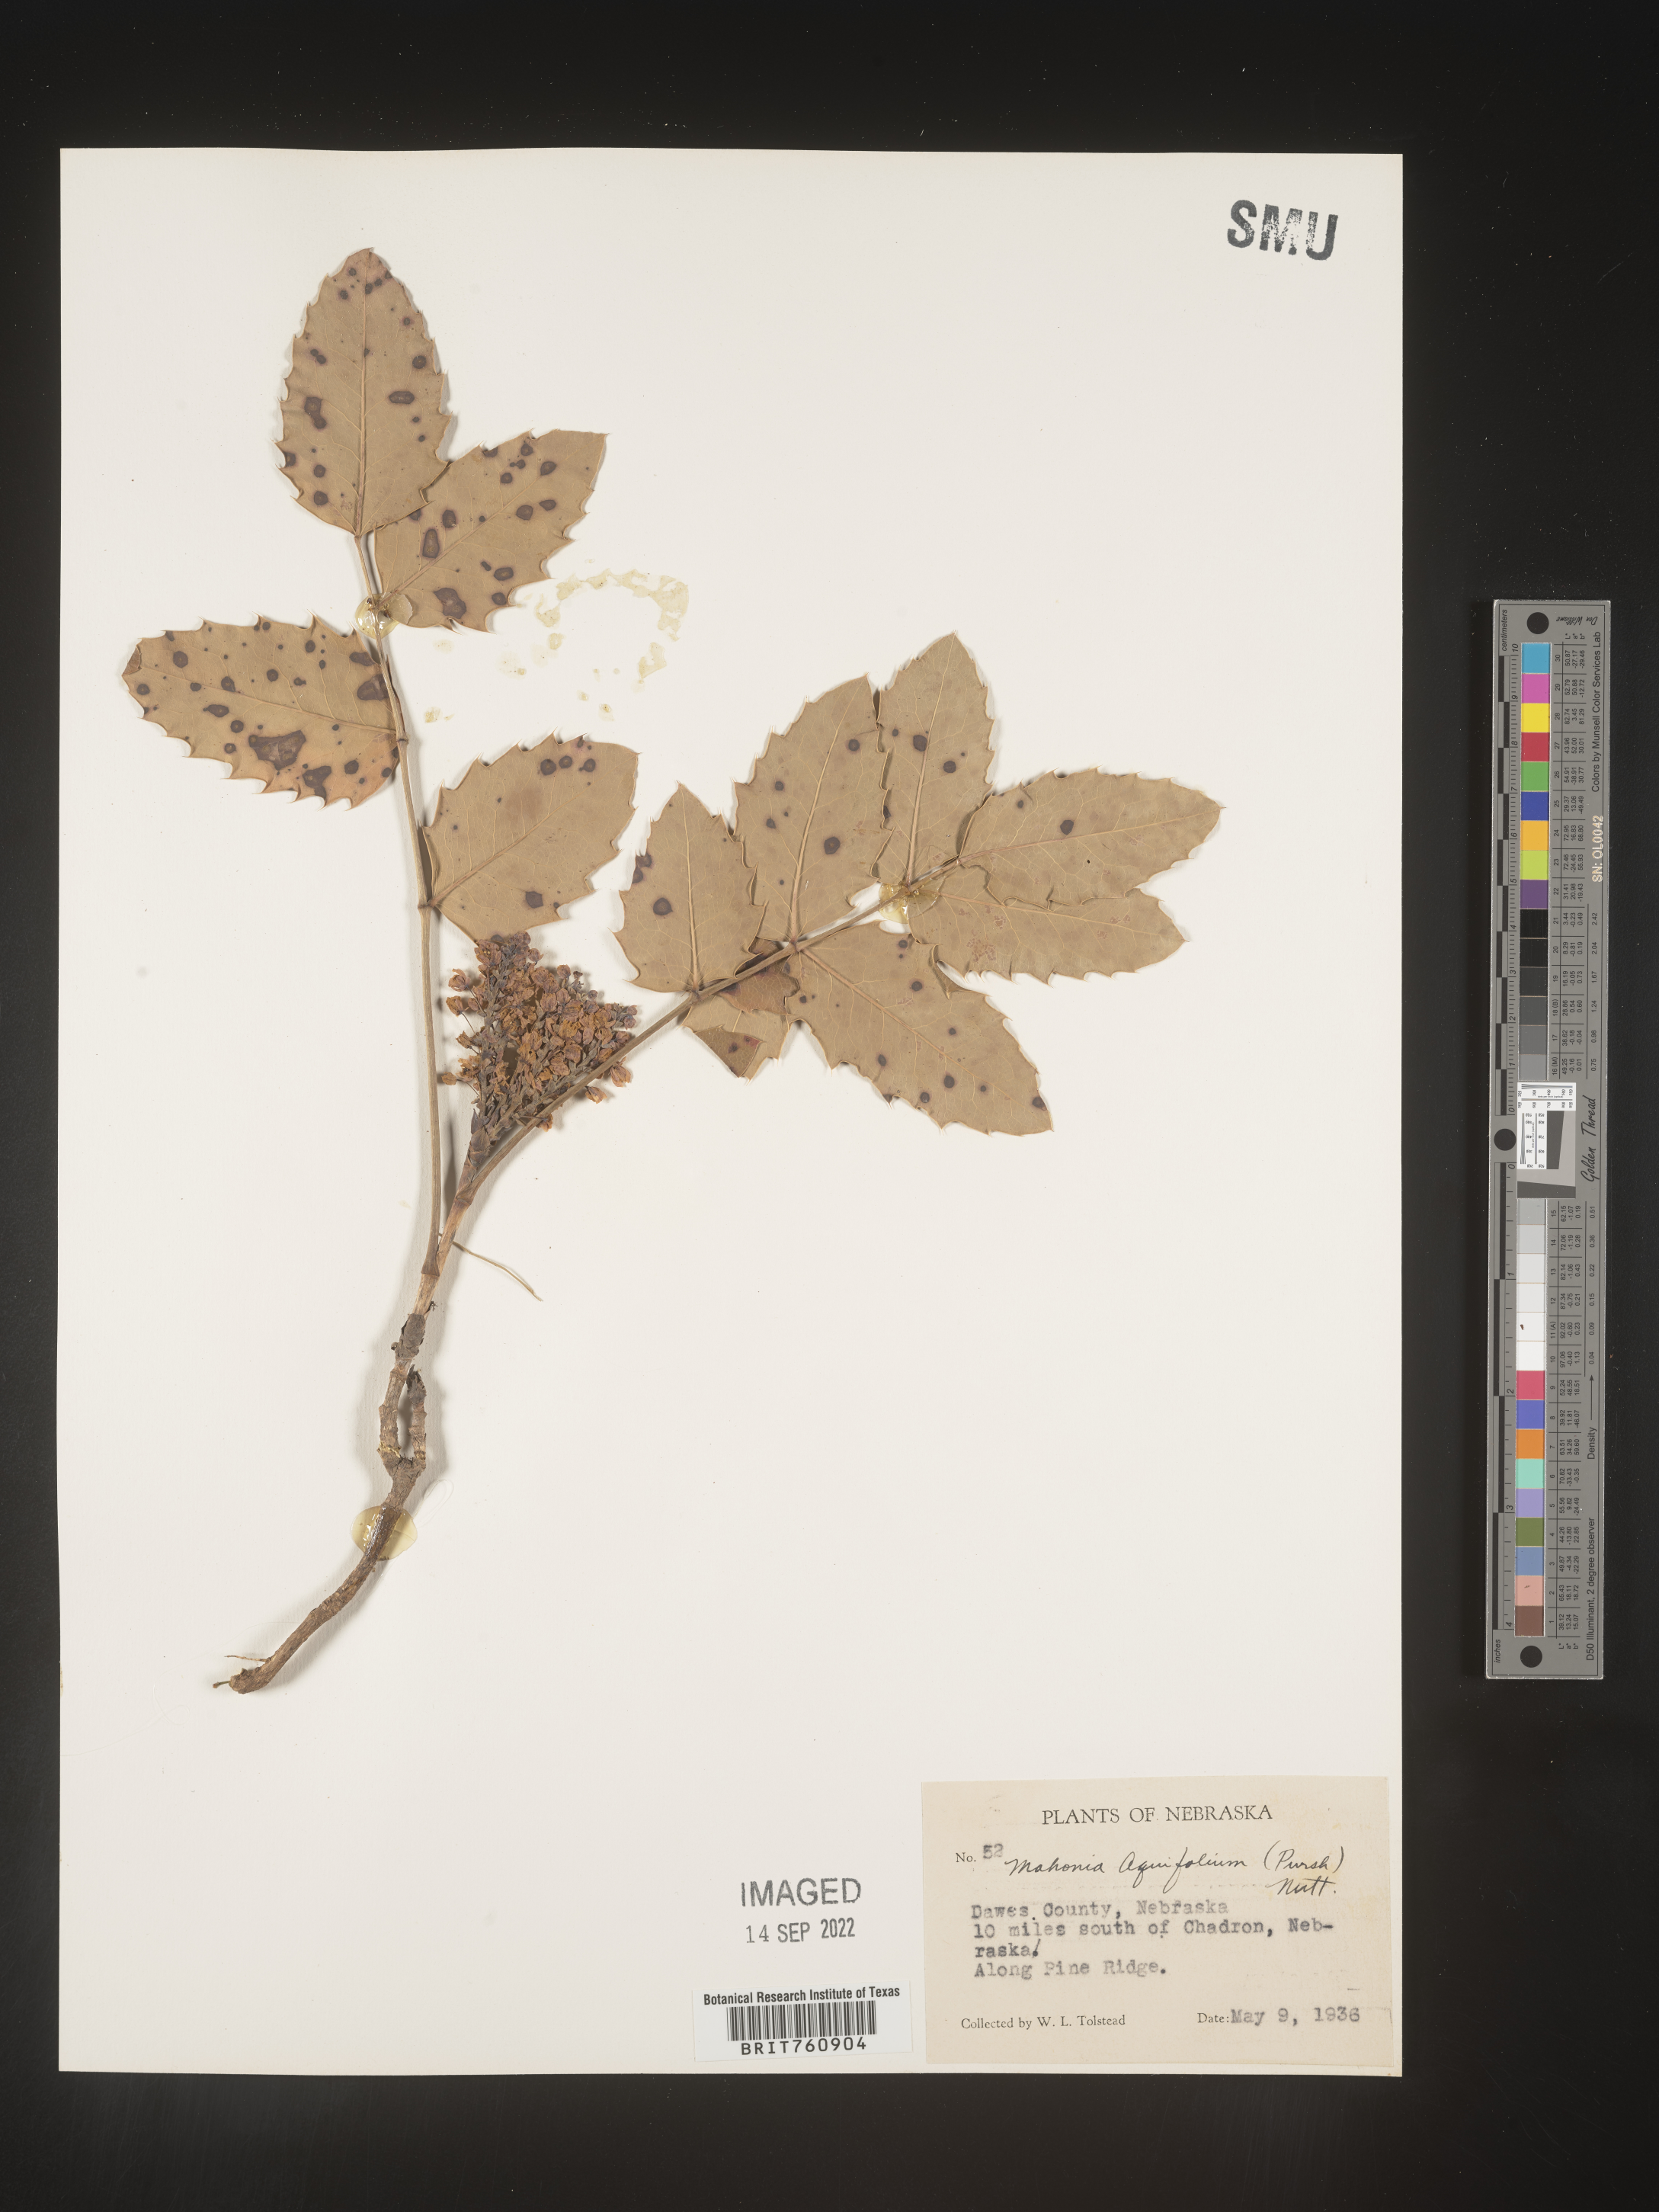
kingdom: Plantae
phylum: Tracheophyta
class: Magnoliopsida
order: Ranunculales
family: Berberidaceae
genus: Mahonia
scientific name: Mahonia aquifolium
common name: Oregon-grape
